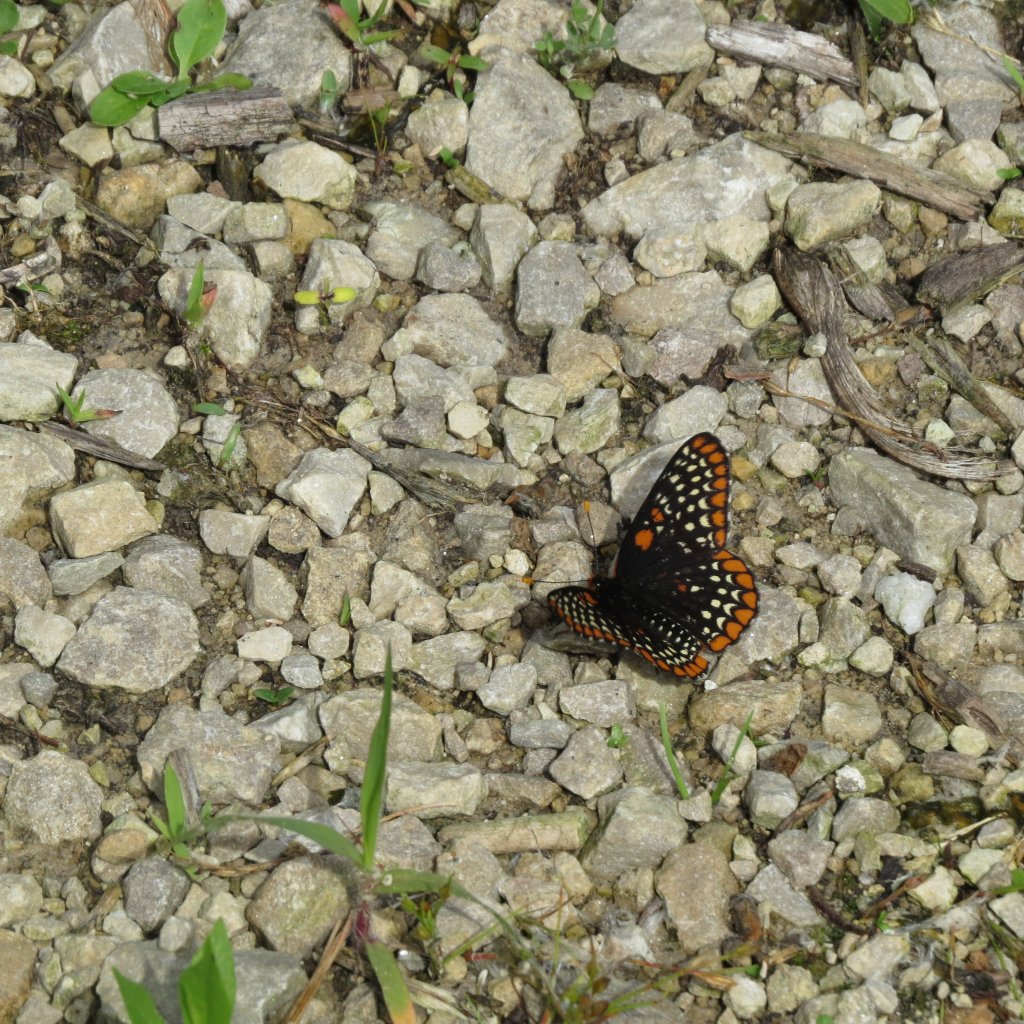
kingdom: Animalia
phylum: Arthropoda
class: Insecta
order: Lepidoptera
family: Nymphalidae
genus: Euphydryas
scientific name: Euphydryas phaeton
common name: Baltimore Checkerspot
